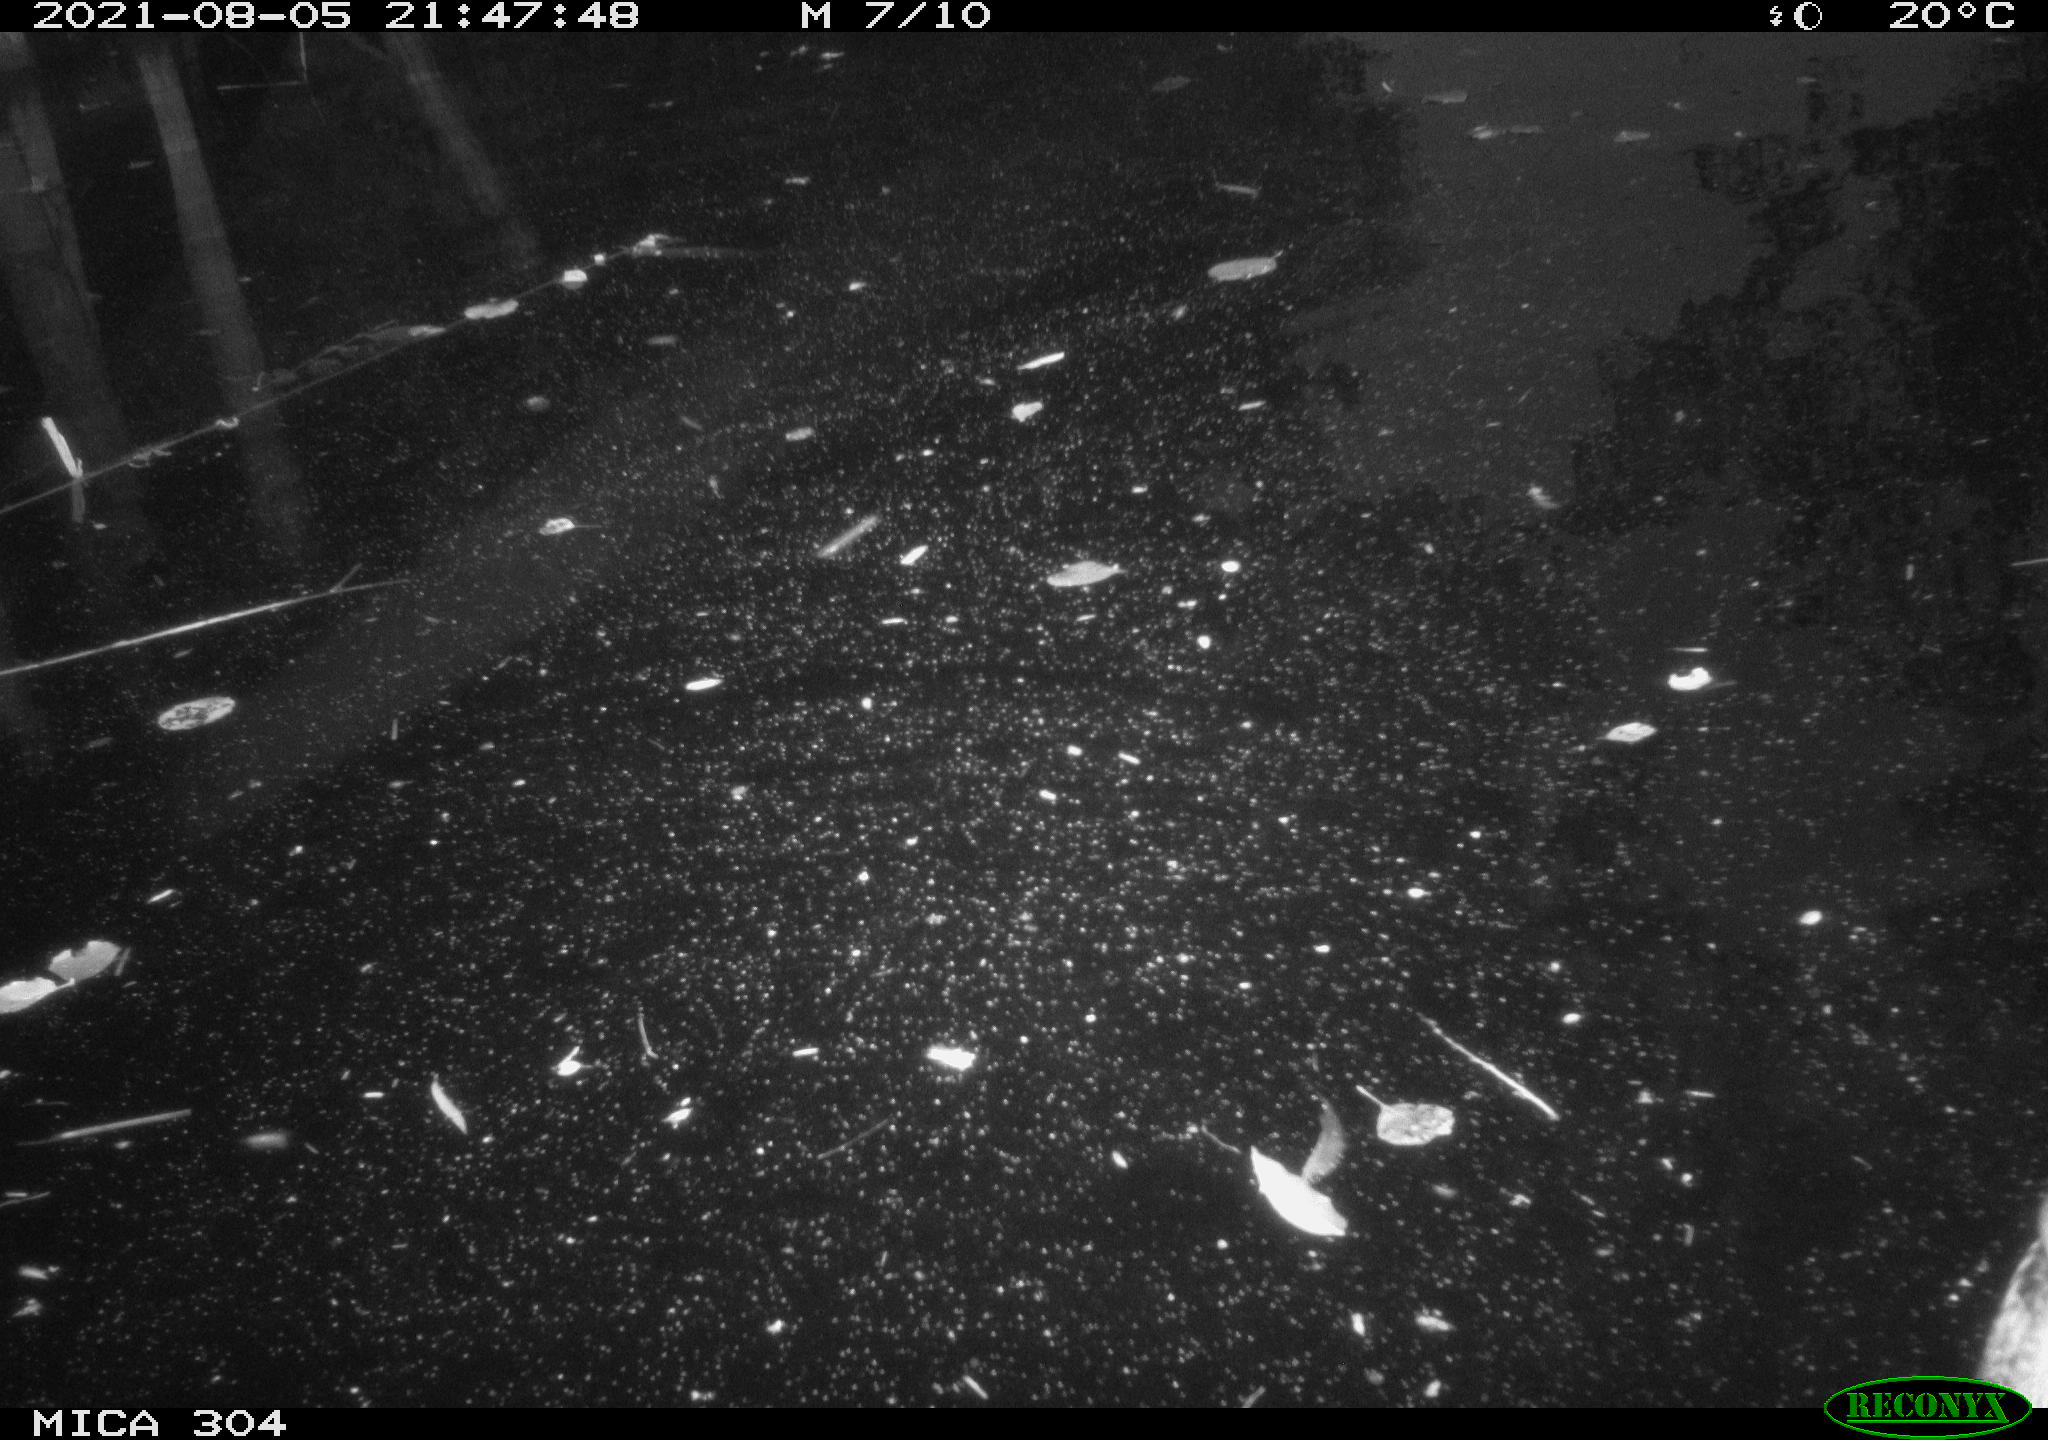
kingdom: Animalia
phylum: Chordata
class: Aves
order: Anseriformes
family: Anatidae
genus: Anas
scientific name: Anas platyrhynchos
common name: Mallard
